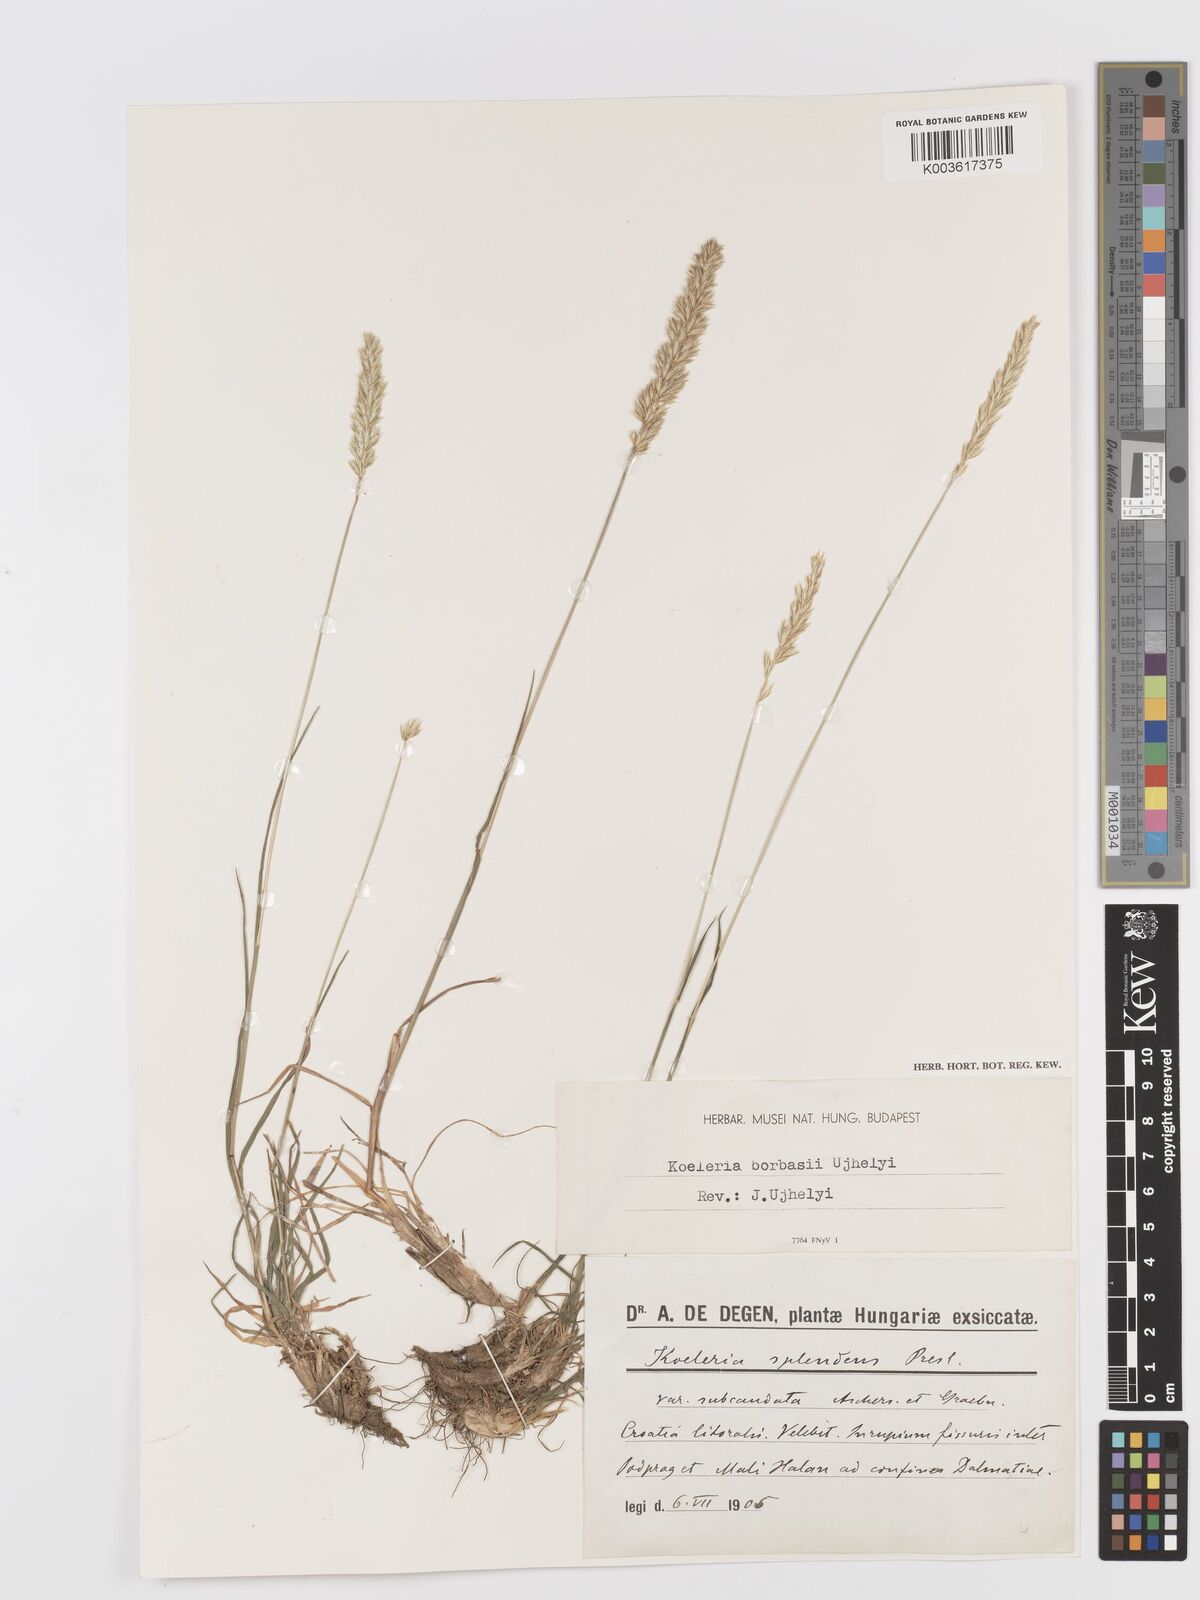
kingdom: Plantae
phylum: Tracheophyta
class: Liliopsida
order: Poales
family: Poaceae
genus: Koeleria
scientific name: Koeleria splendens
